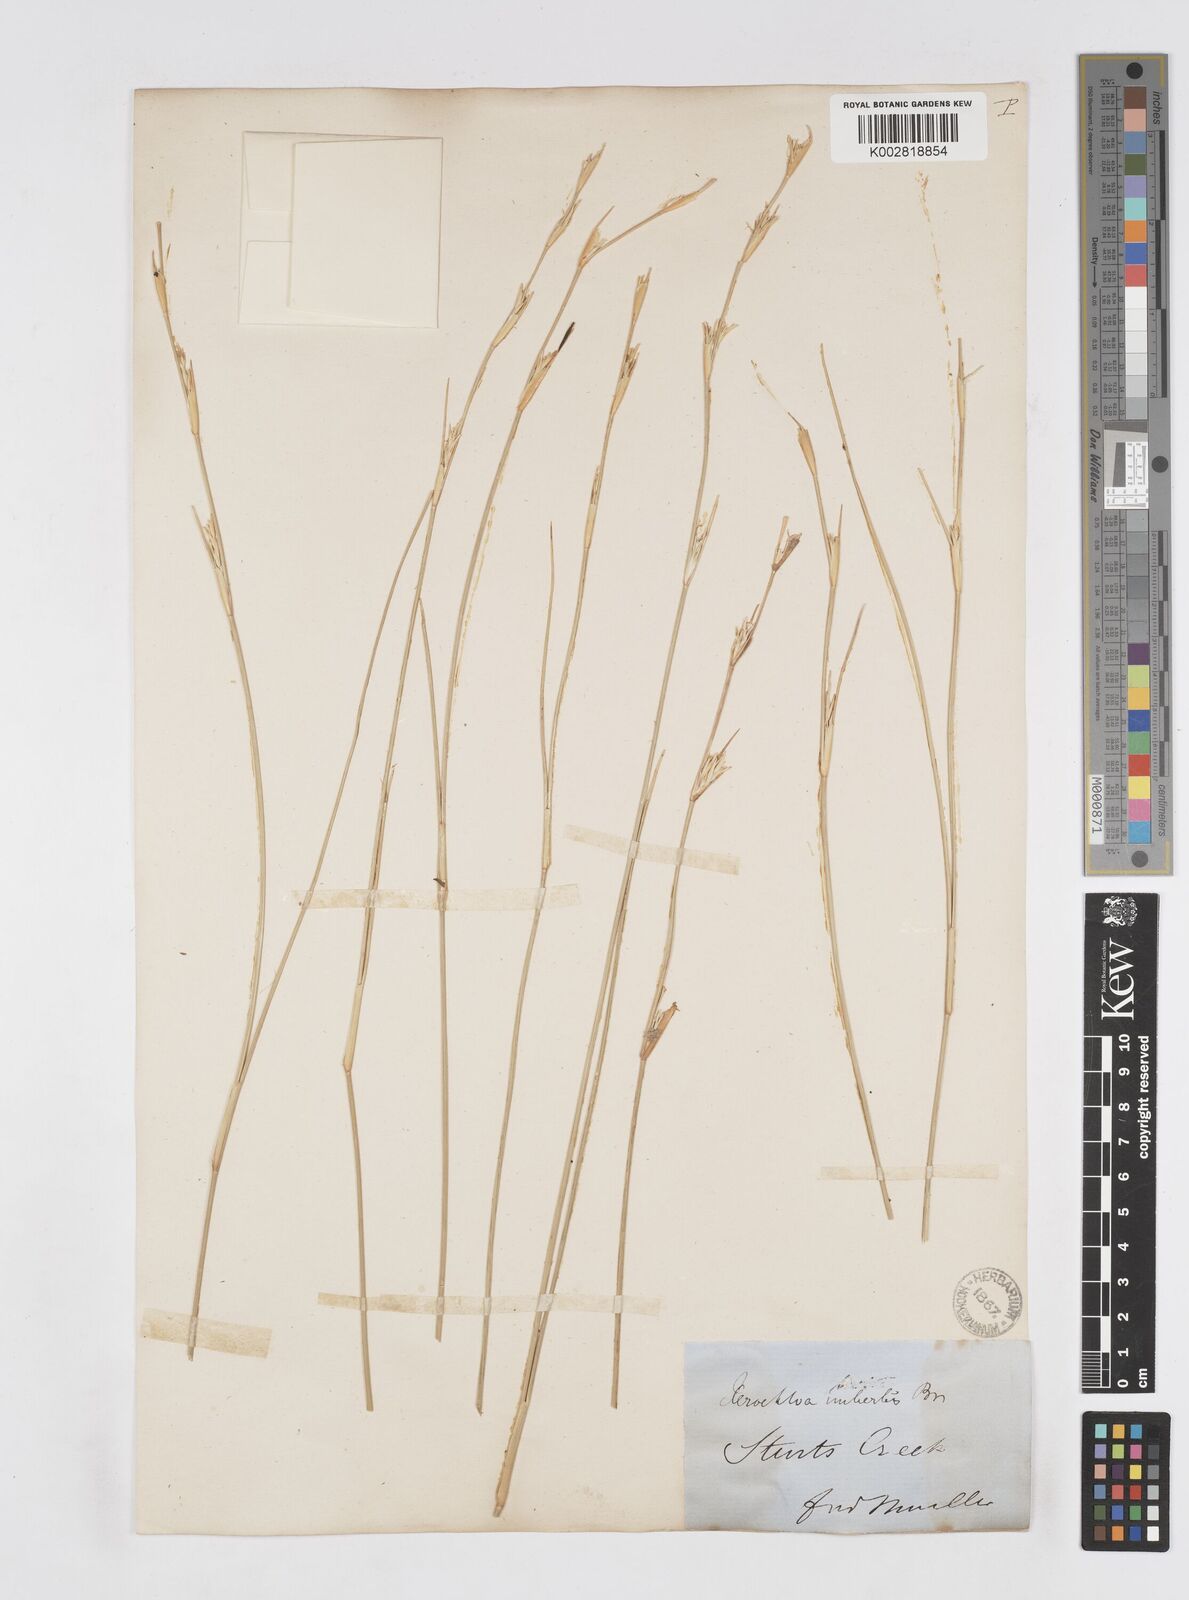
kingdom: Plantae
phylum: Tracheophyta
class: Liliopsida
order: Poales
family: Poaceae
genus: Xerochloa
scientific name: Xerochloa imberbis
